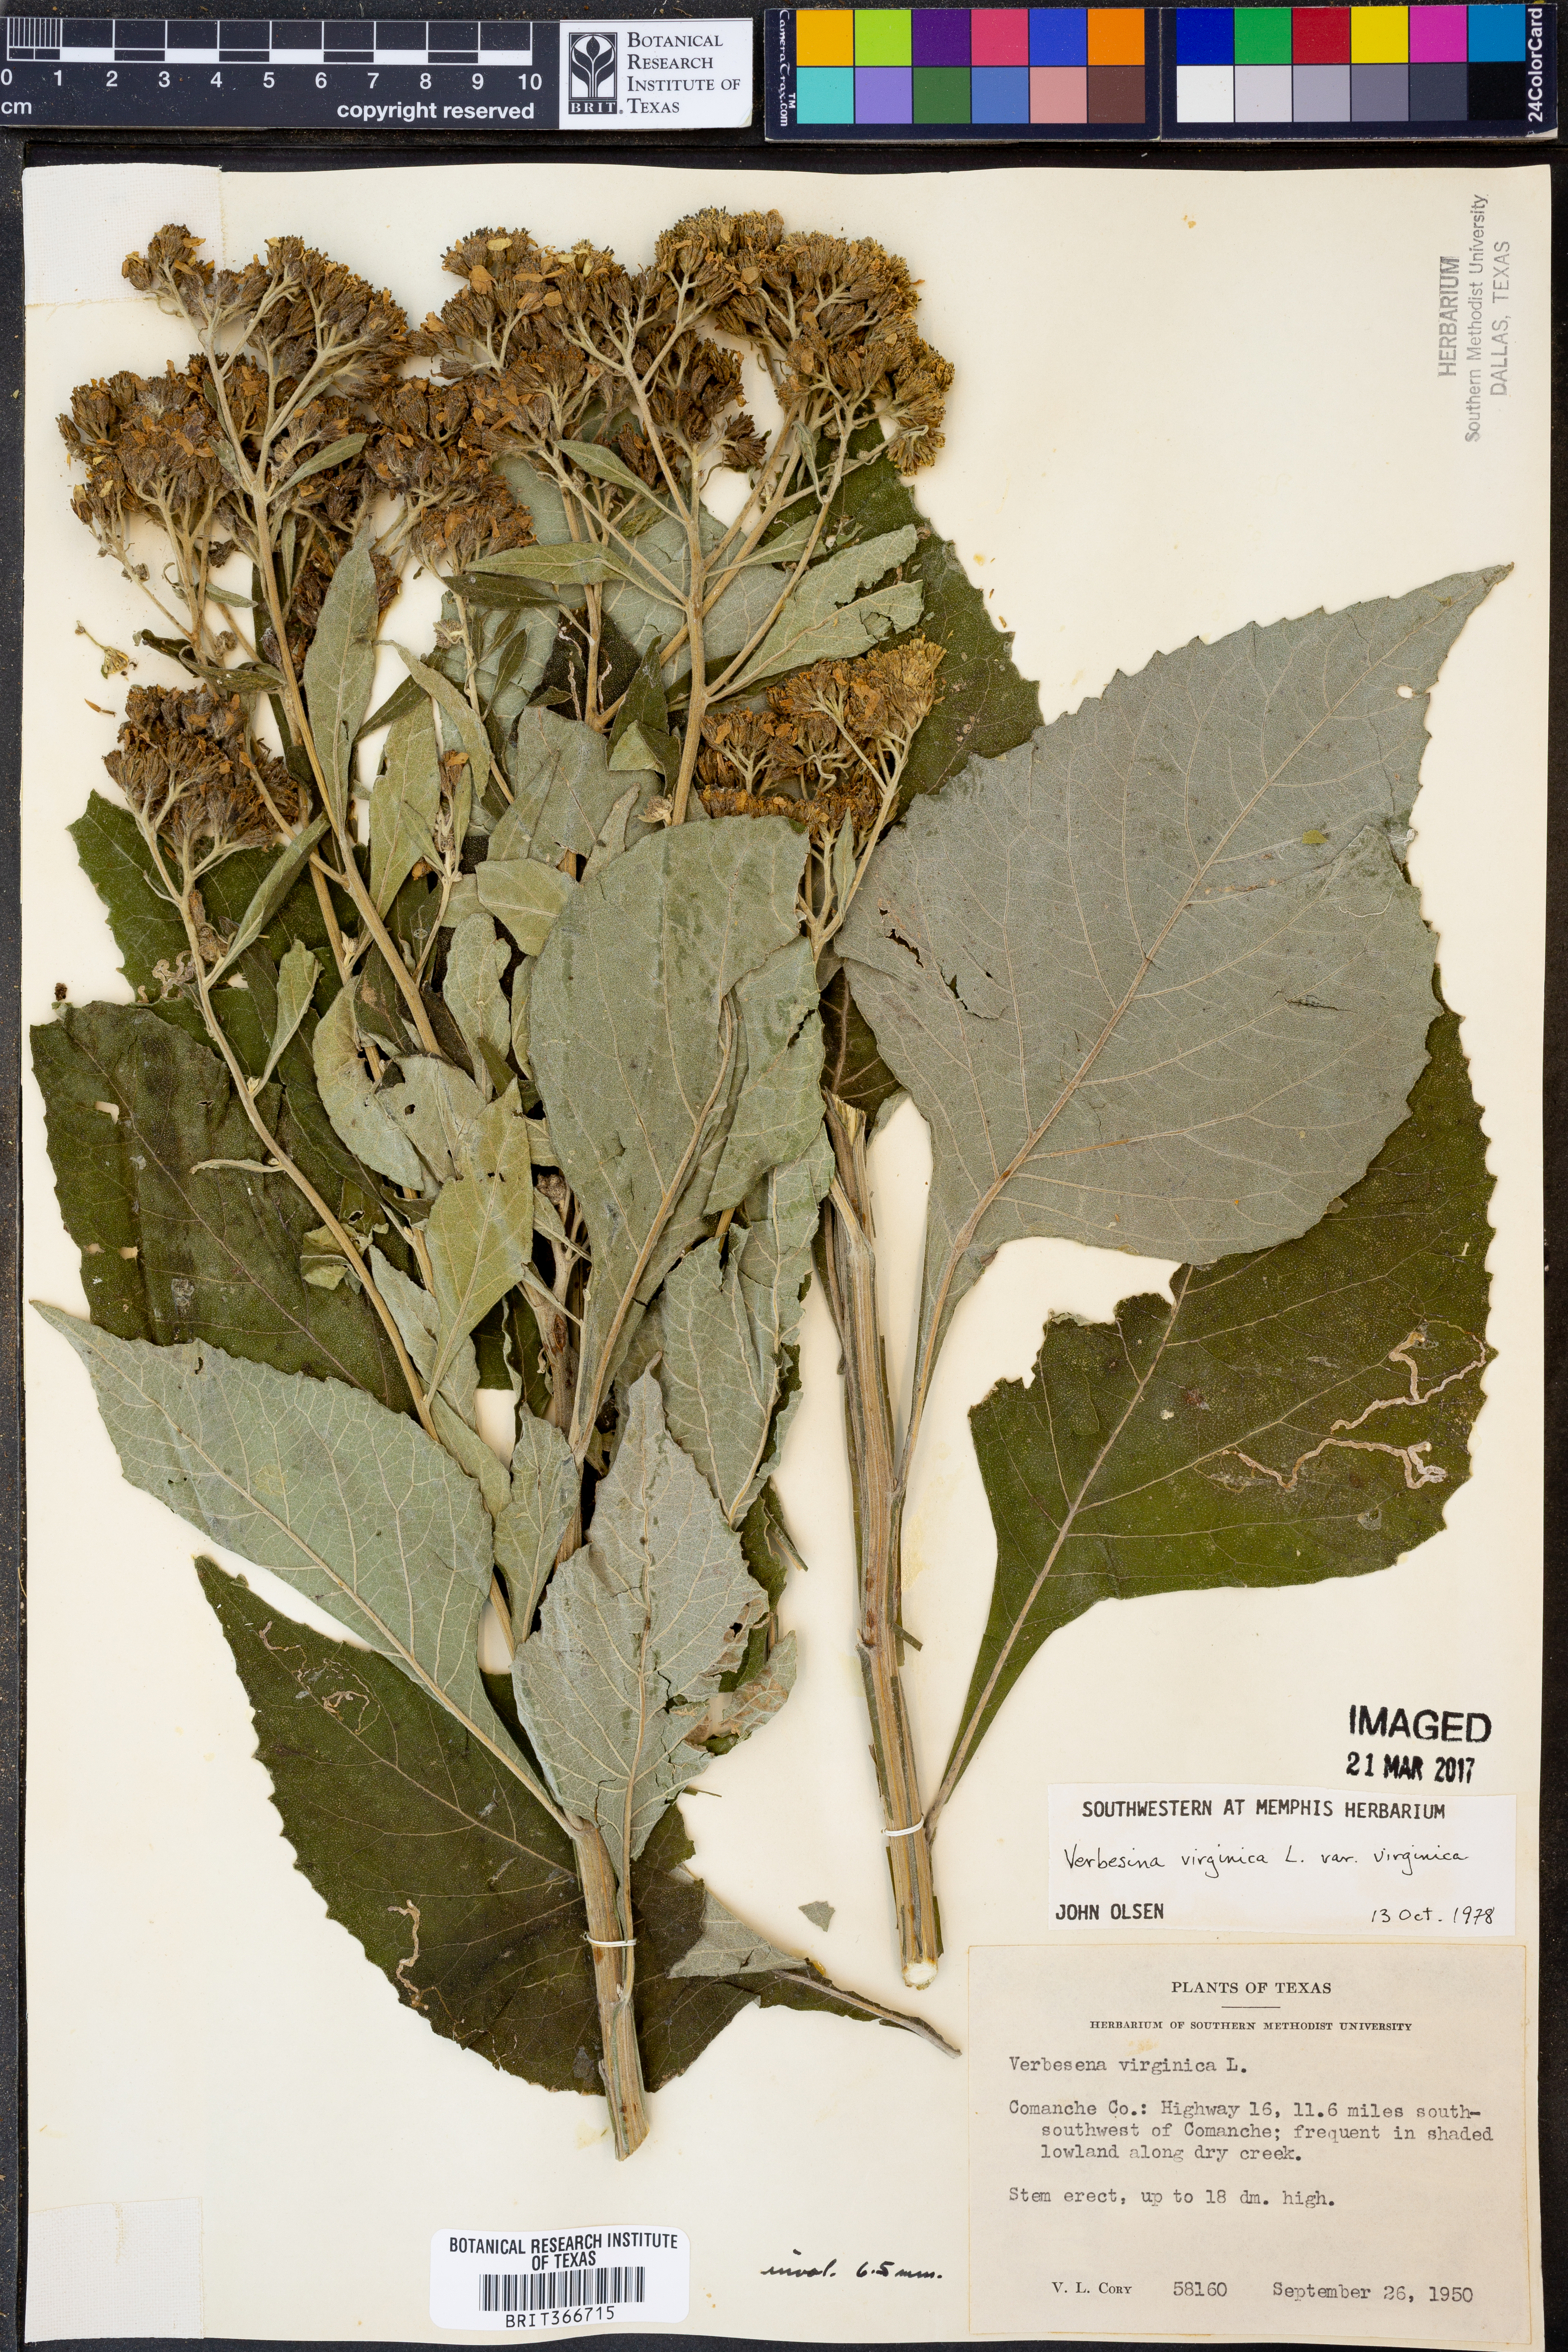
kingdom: Plantae
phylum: Tracheophyta
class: Magnoliopsida
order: Asterales
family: Asteraceae
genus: Verbesina
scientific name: Verbesina virginica
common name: Frostweed
